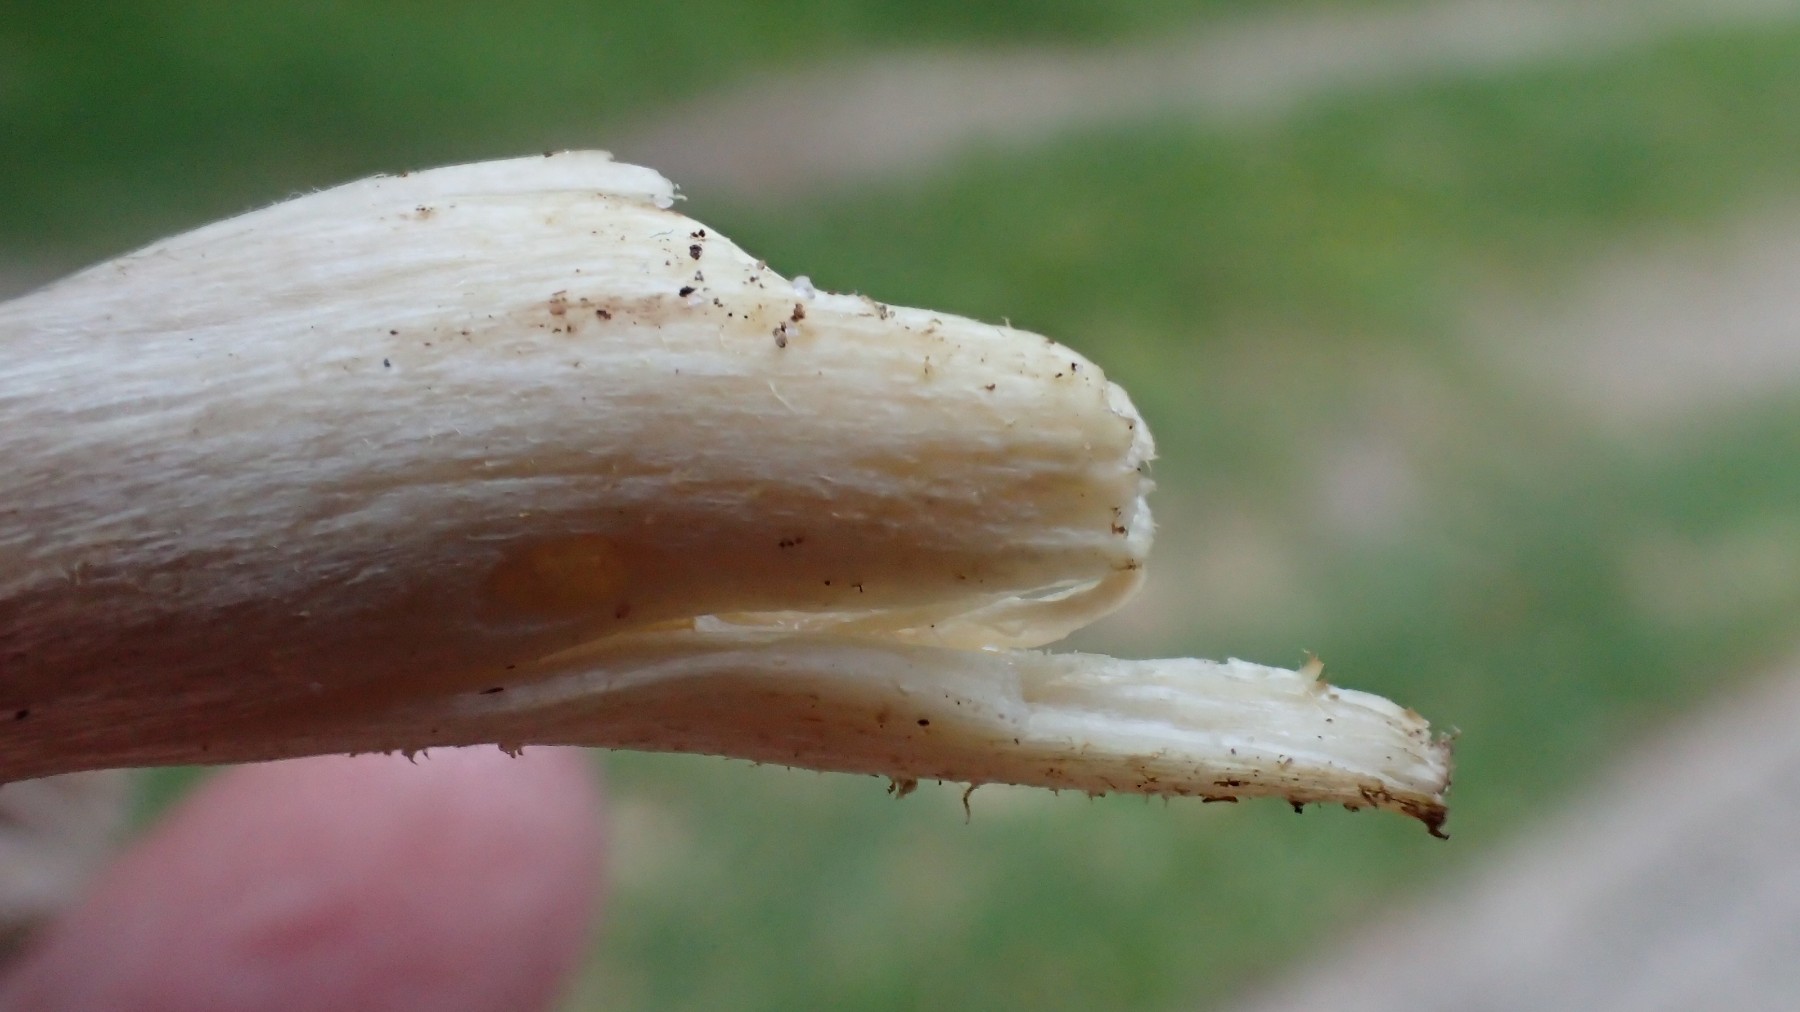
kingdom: Fungi
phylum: Basidiomycota
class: Agaricomycetes
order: Agaricales
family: Hygrophoraceae
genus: Cuphophyllus
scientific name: Cuphophyllus flavipes
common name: gulfodet vokshat
